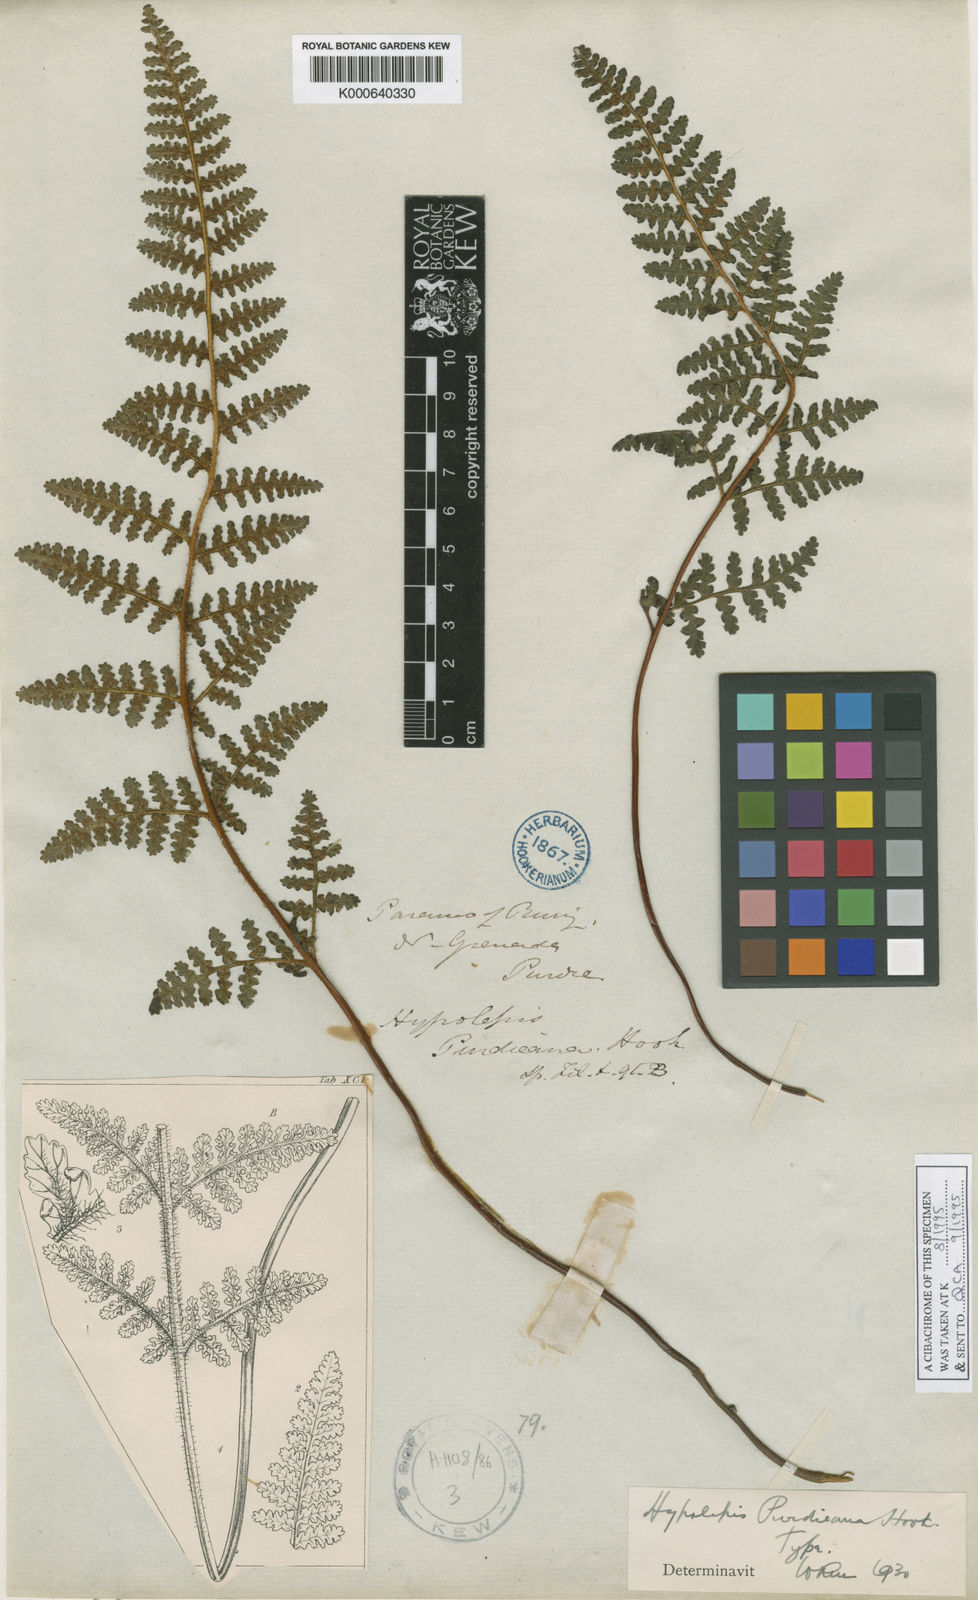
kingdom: Plantae
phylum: Tracheophyta
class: Polypodiopsida
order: Polypodiales
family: Dennstaedtiaceae
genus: Hypolepis
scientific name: Hypolepis obtusata
